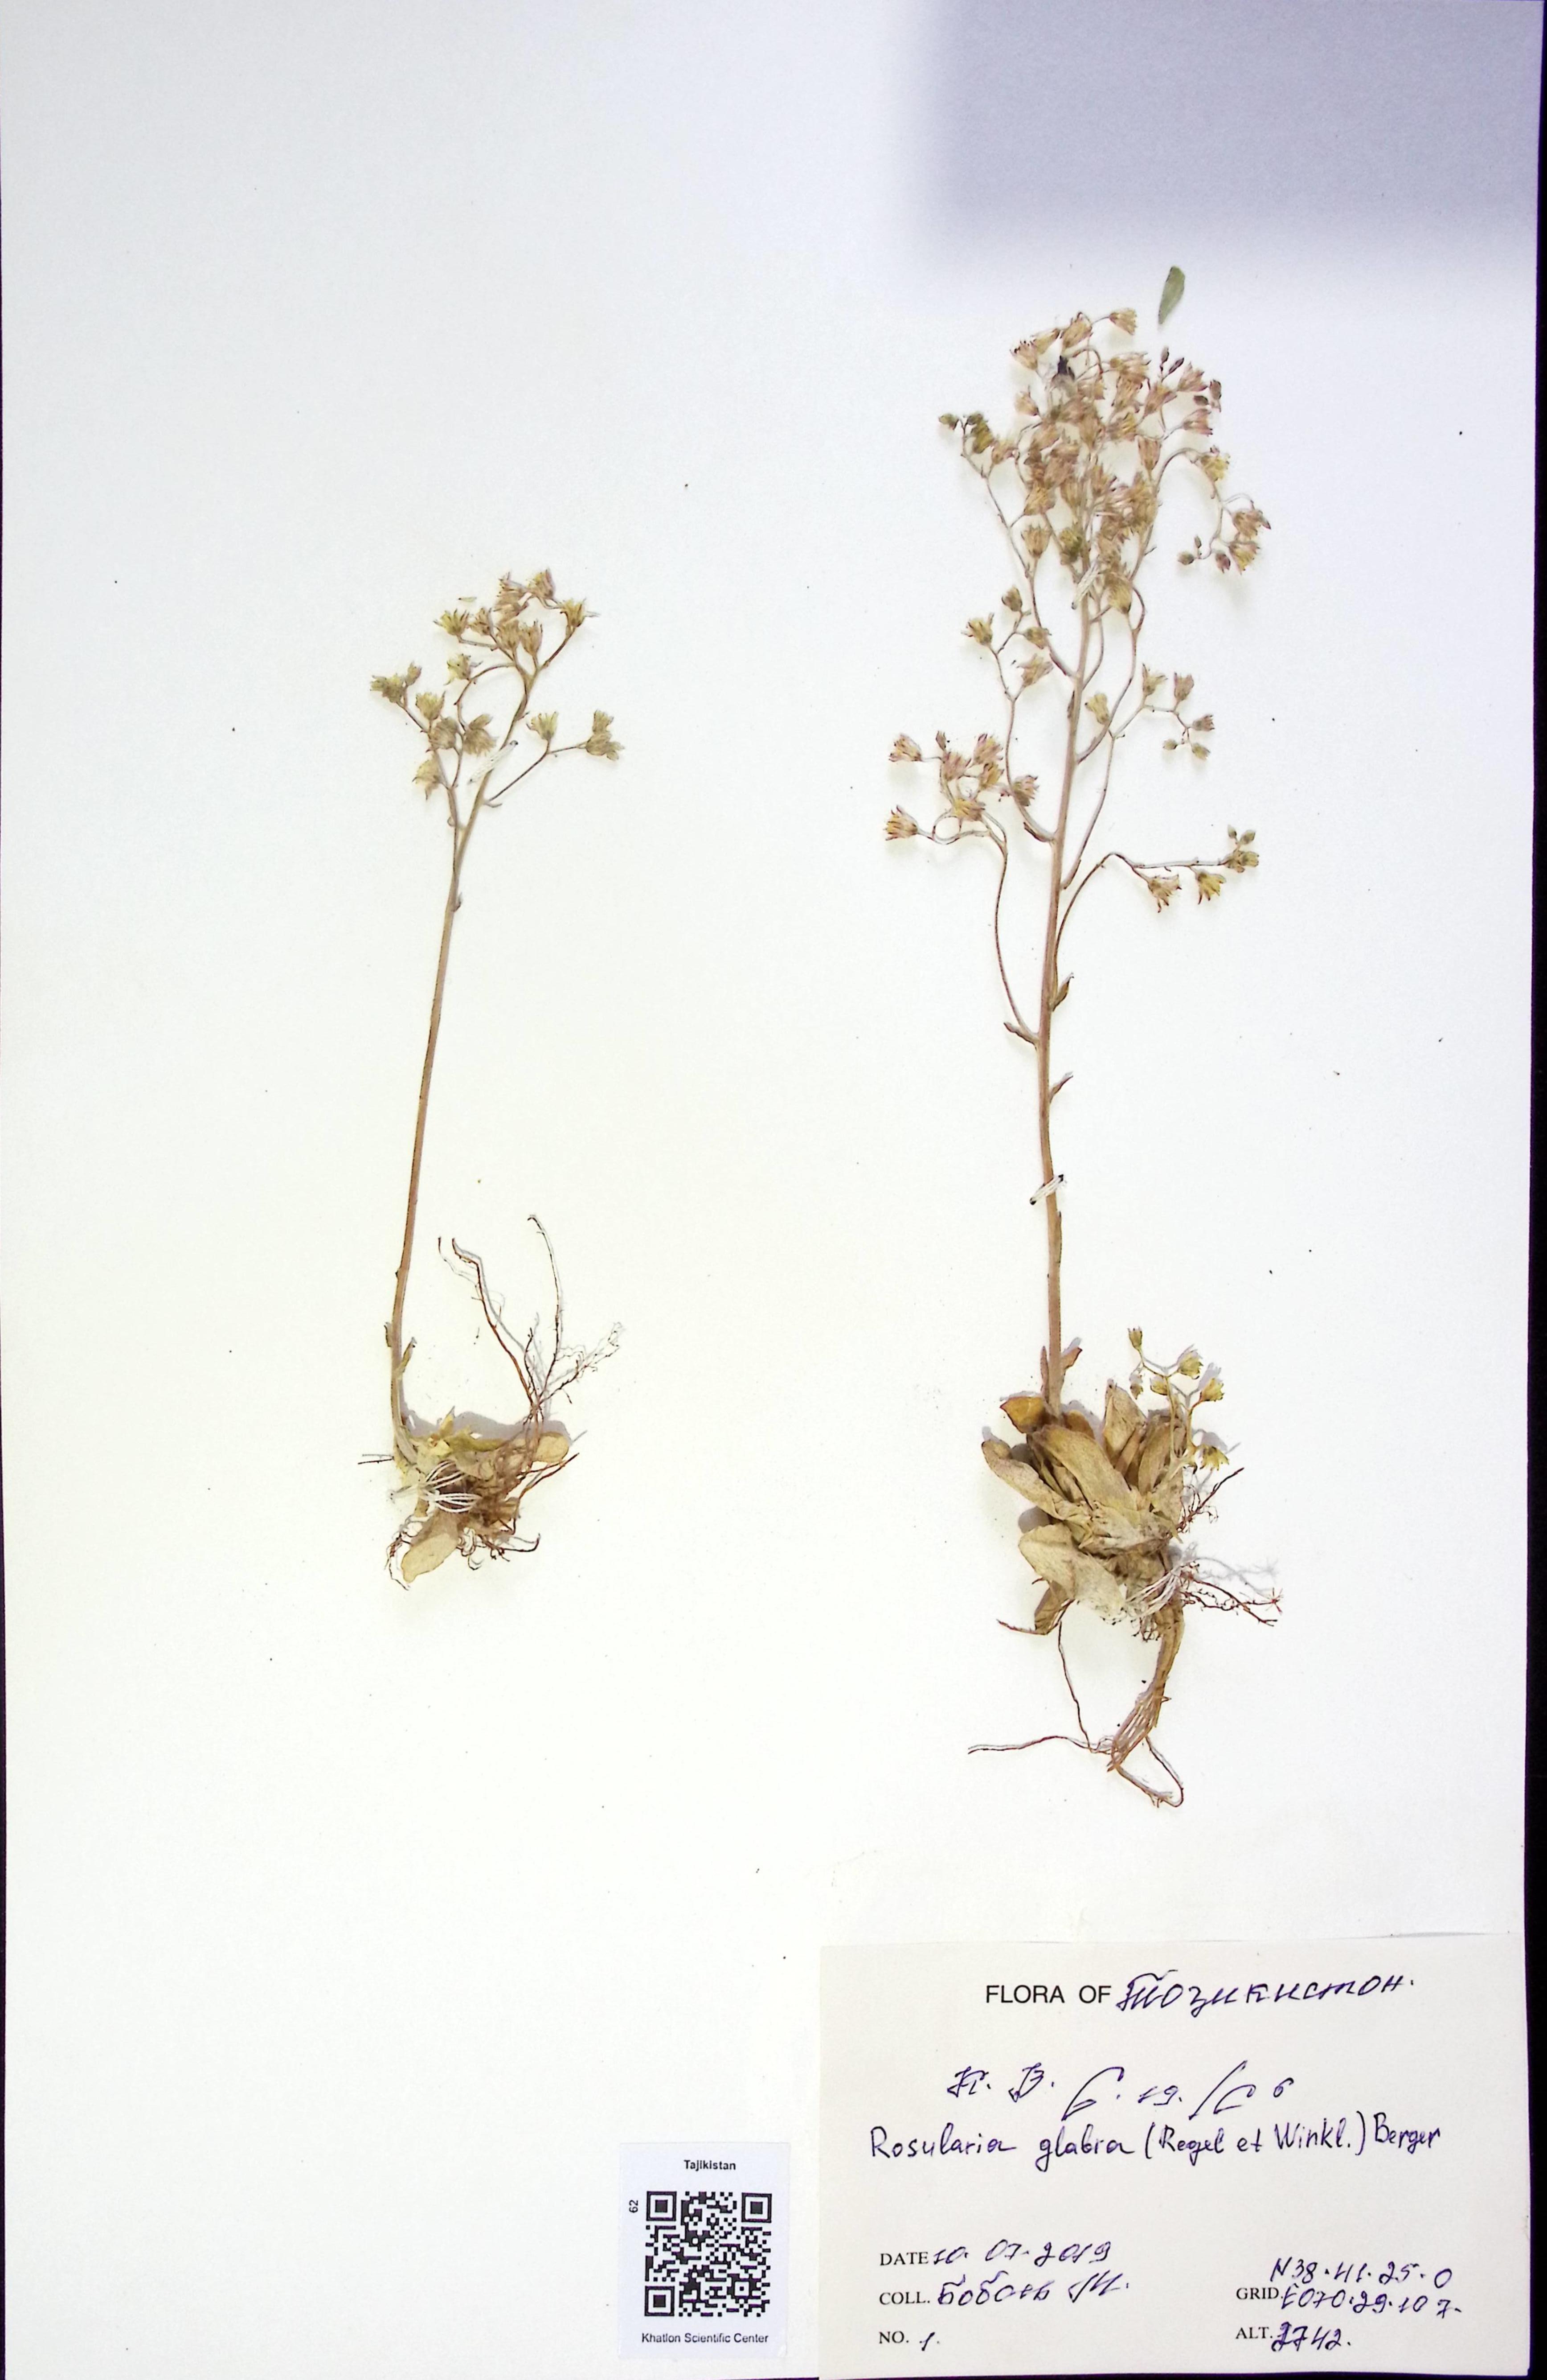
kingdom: Plantae
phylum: Tracheophyta
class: Magnoliopsida
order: Saxifragales
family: Crassulaceae
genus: Rosularia
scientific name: Rosularia glabra
